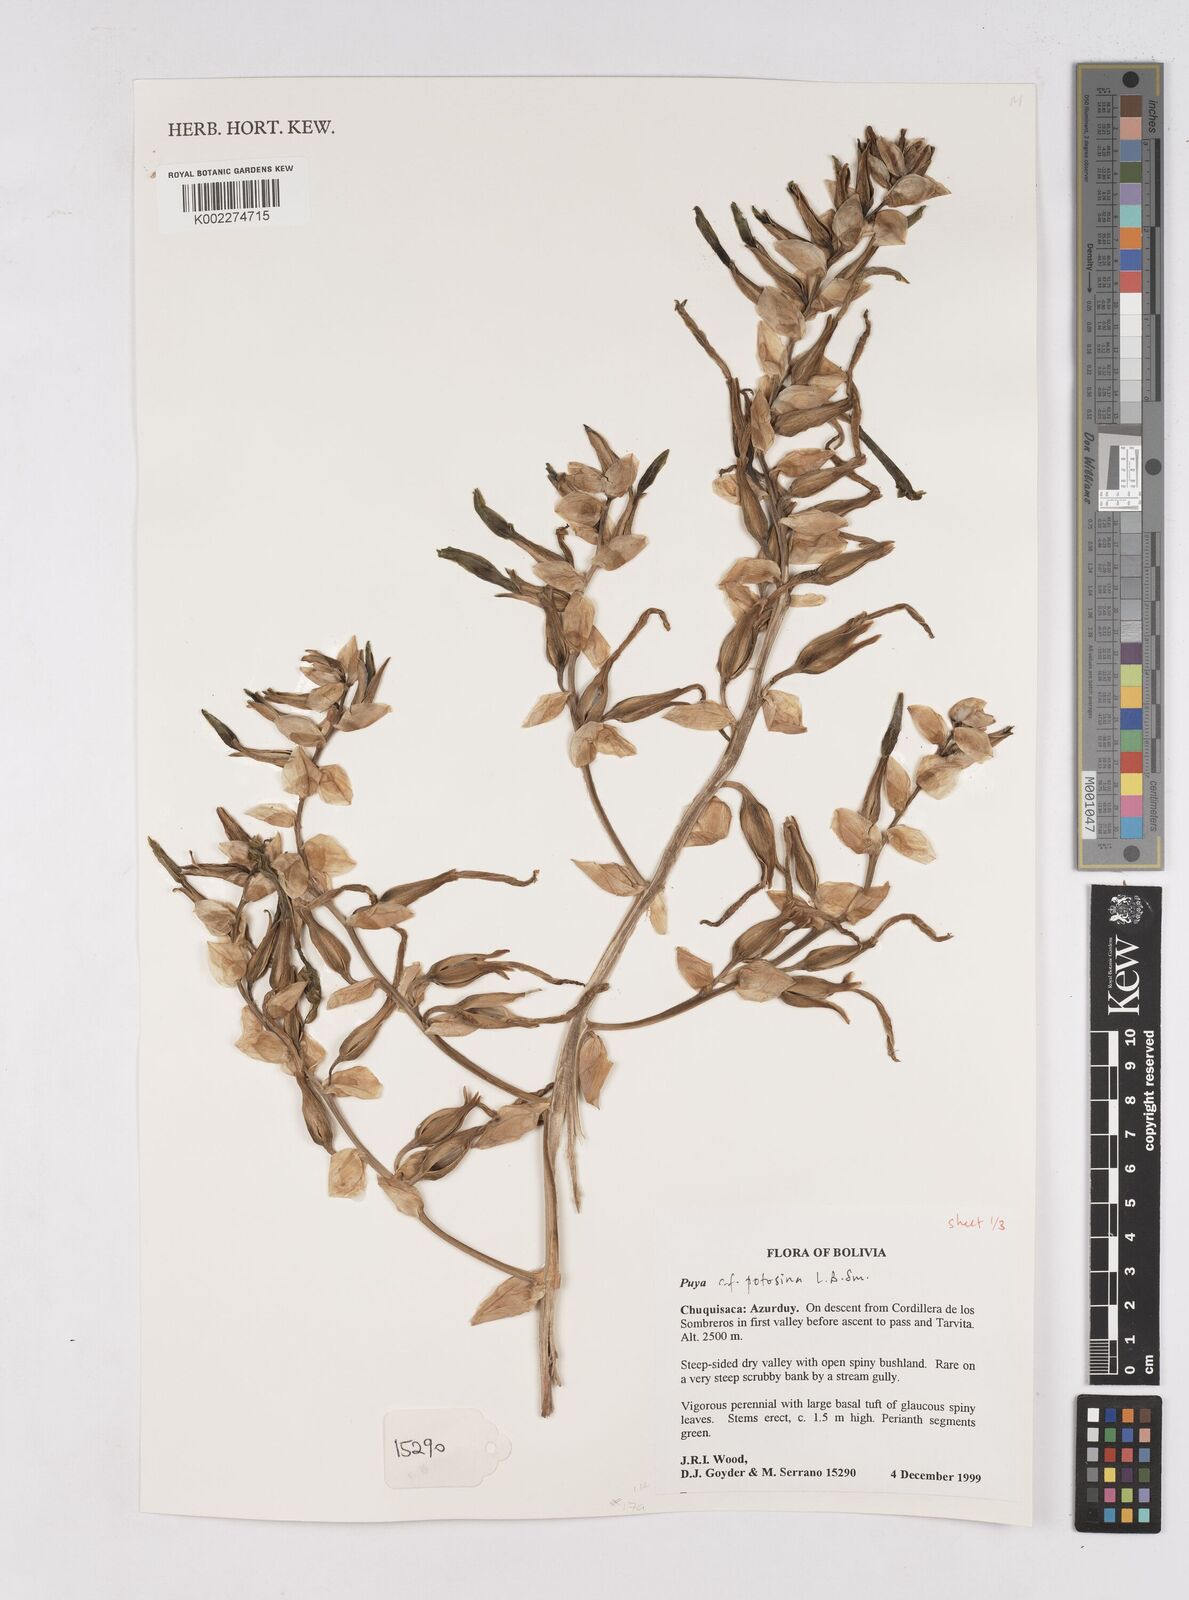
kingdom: Plantae
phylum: Tracheophyta
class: Liliopsida
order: Poales
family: Bromeliaceae
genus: Puya
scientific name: Puya potosina
